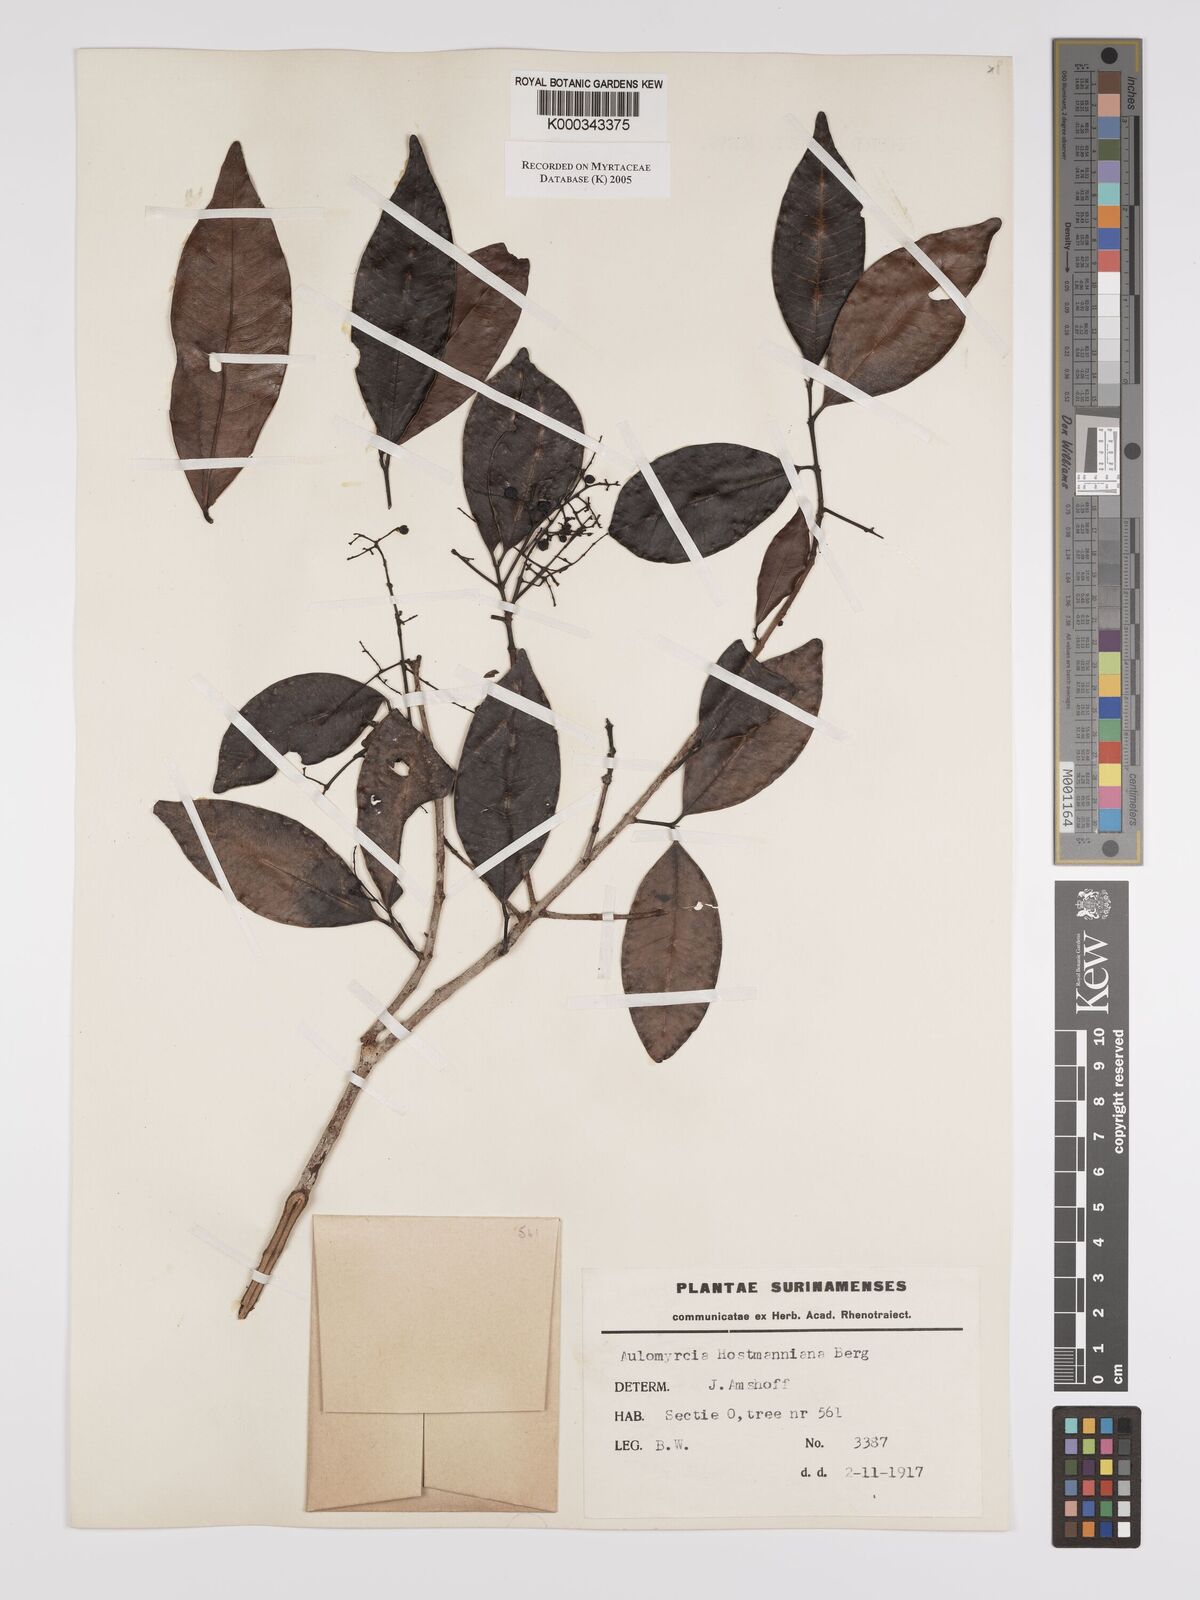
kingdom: Plantae
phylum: Tracheophyta
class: Magnoliopsida
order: Myrtales
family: Myrtaceae
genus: Myrcia
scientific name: Myrcia amazonica
